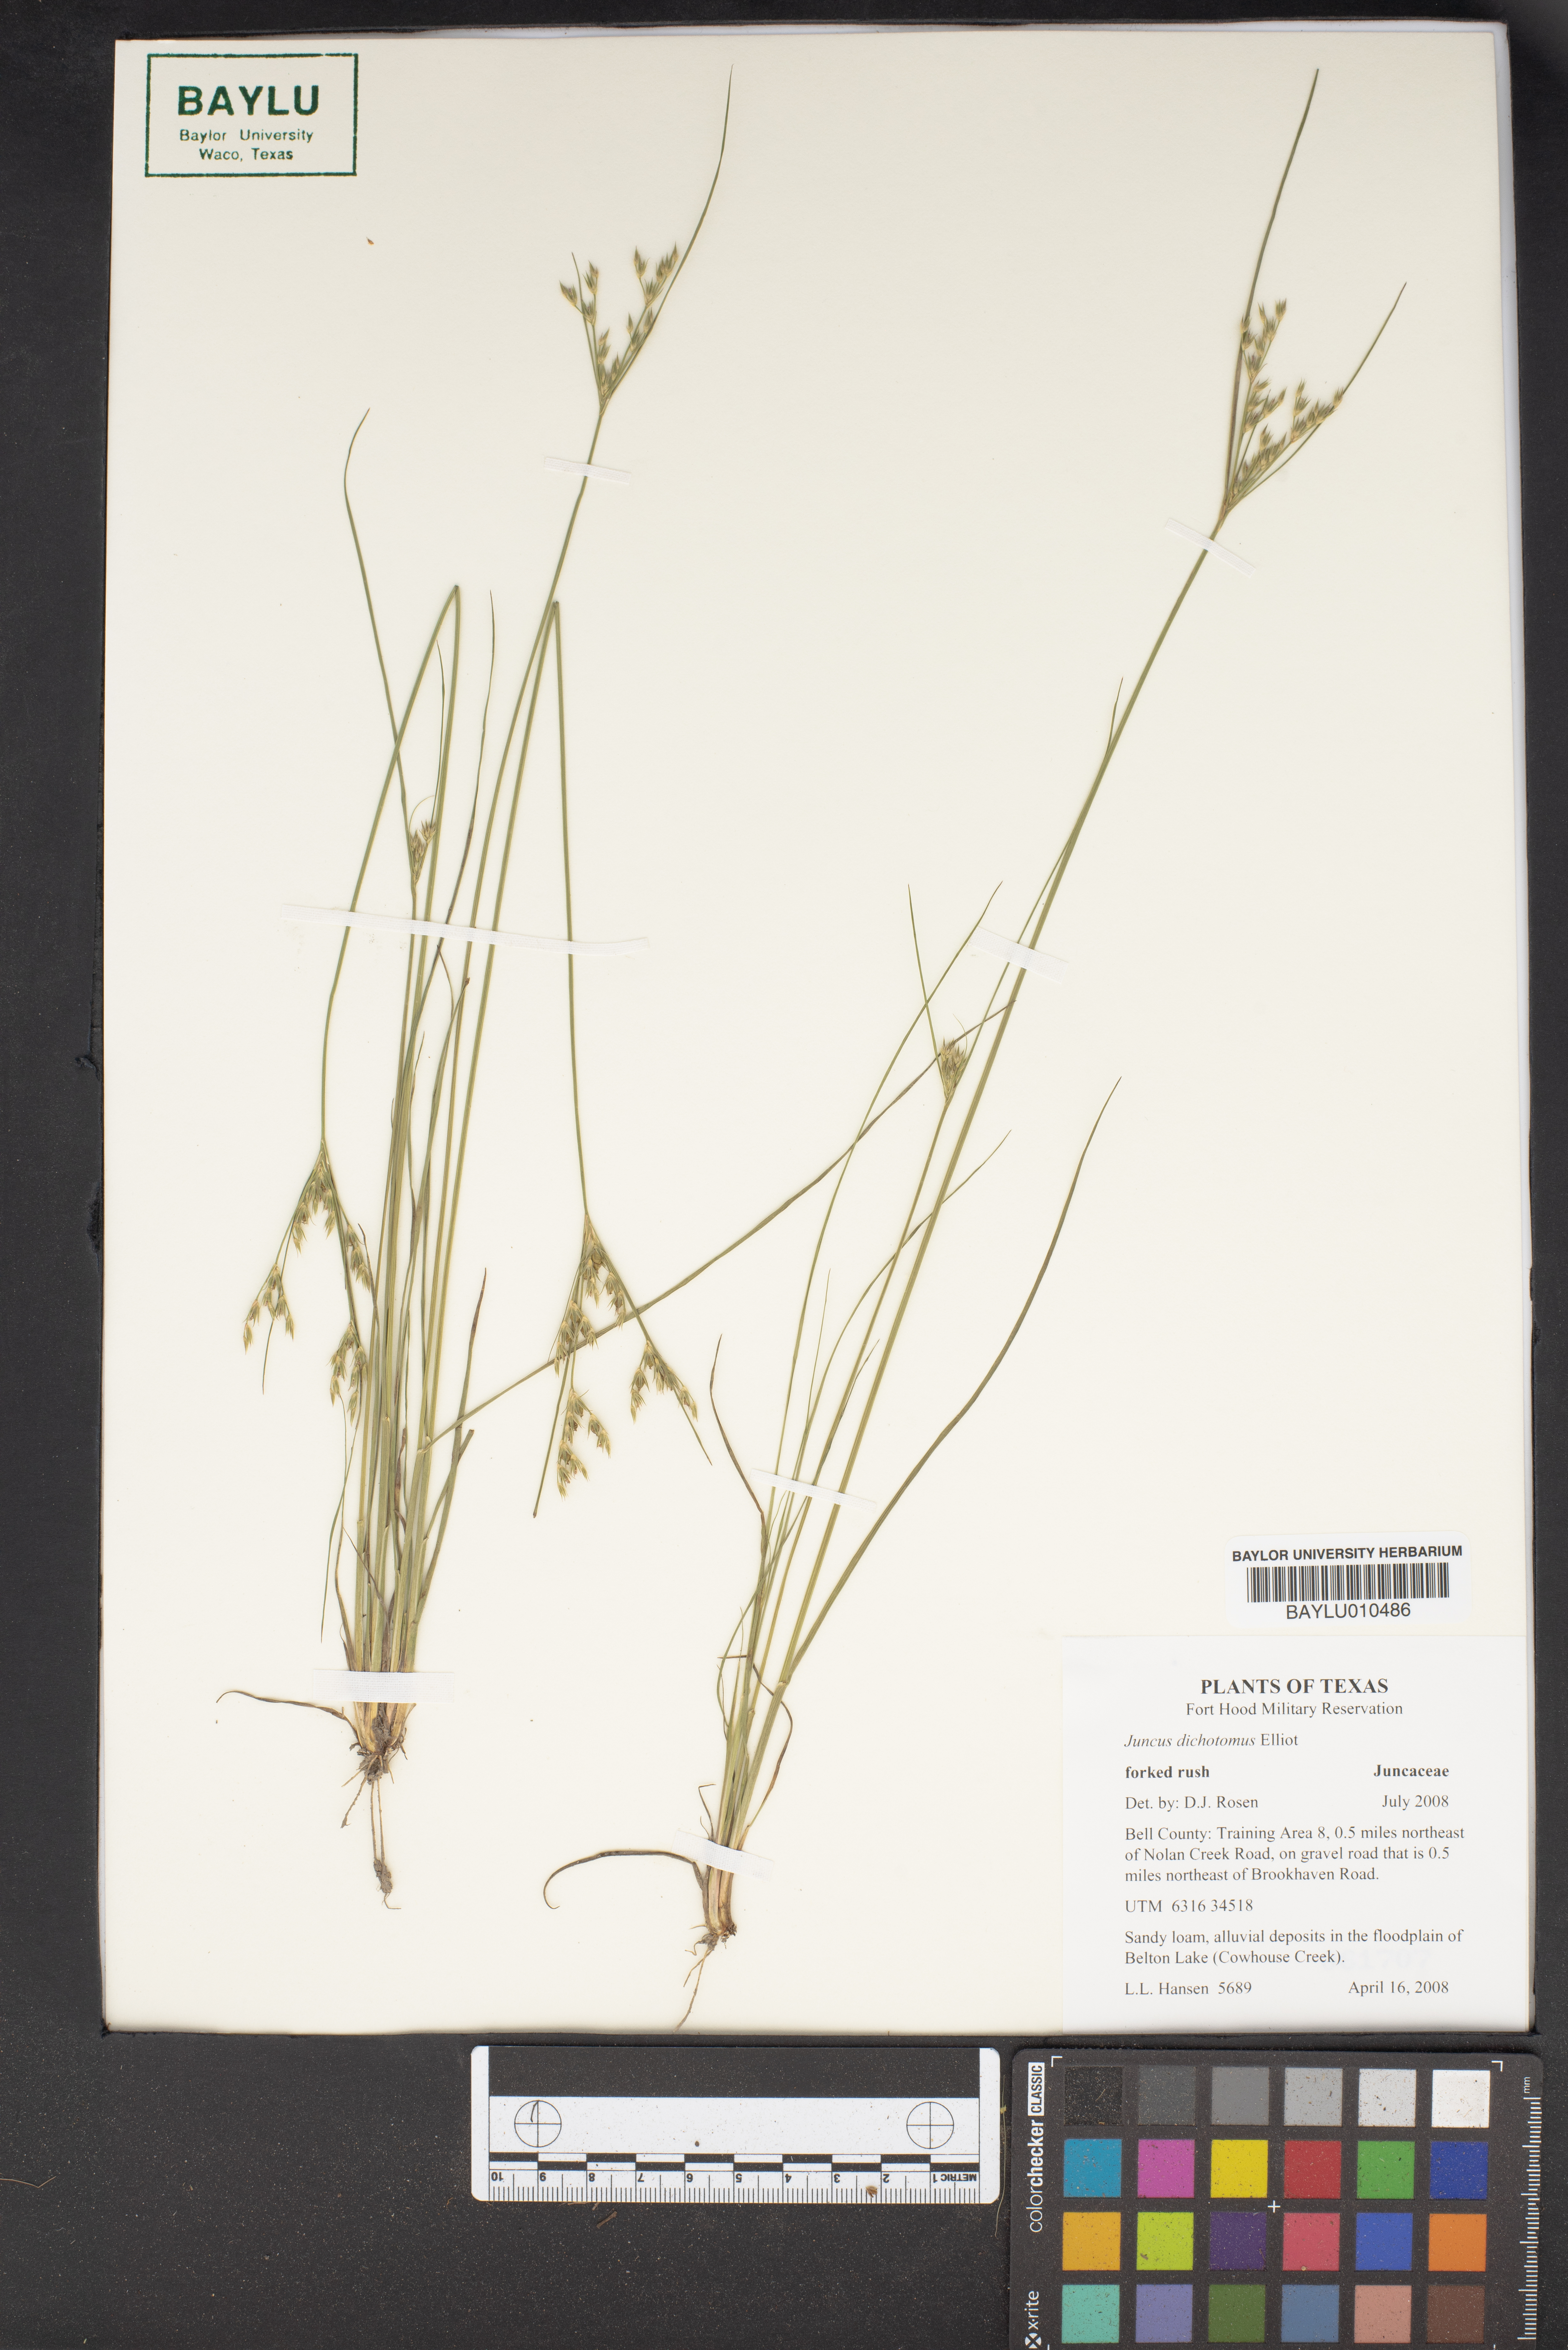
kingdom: Plantae
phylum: Tracheophyta
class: Liliopsida
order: Poales
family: Juncaceae
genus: Juncus
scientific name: Juncus dichotomus
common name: Forked rush
